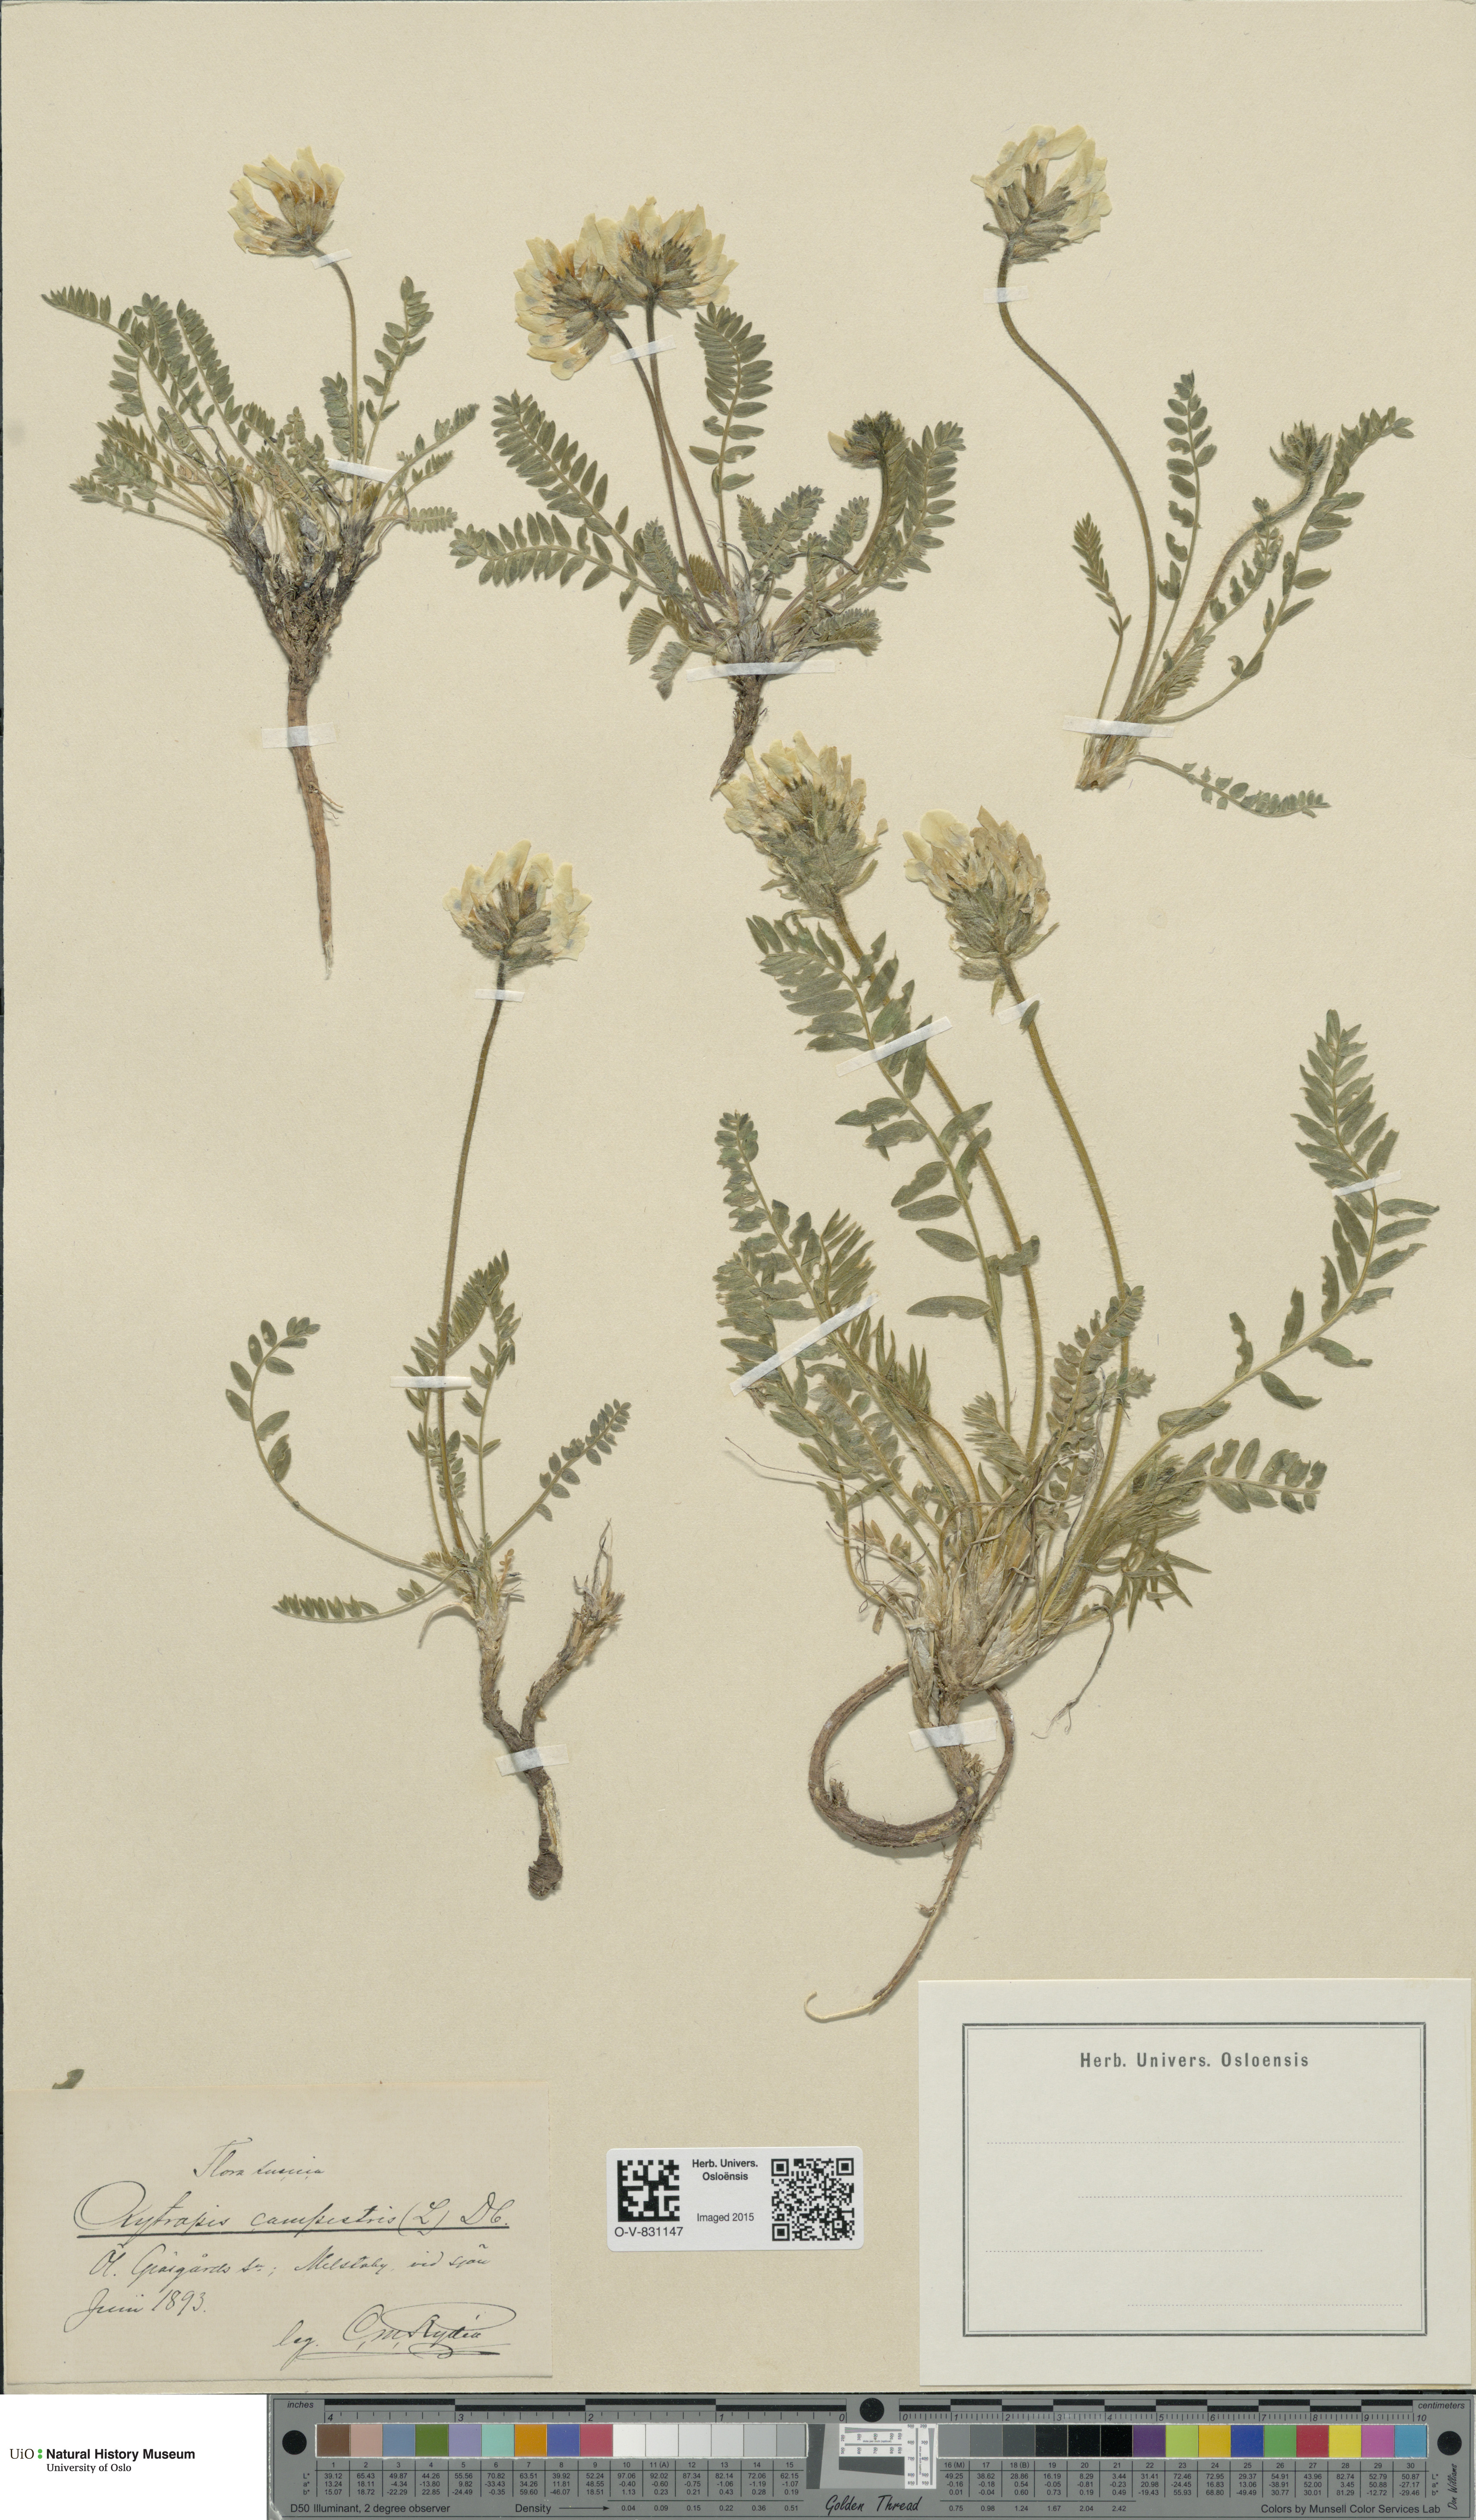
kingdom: Plantae
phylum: Tracheophyta
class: Magnoliopsida
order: Fabales
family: Fabaceae
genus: Oxytropis
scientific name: Oxytropis campestris
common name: Field locoweed
